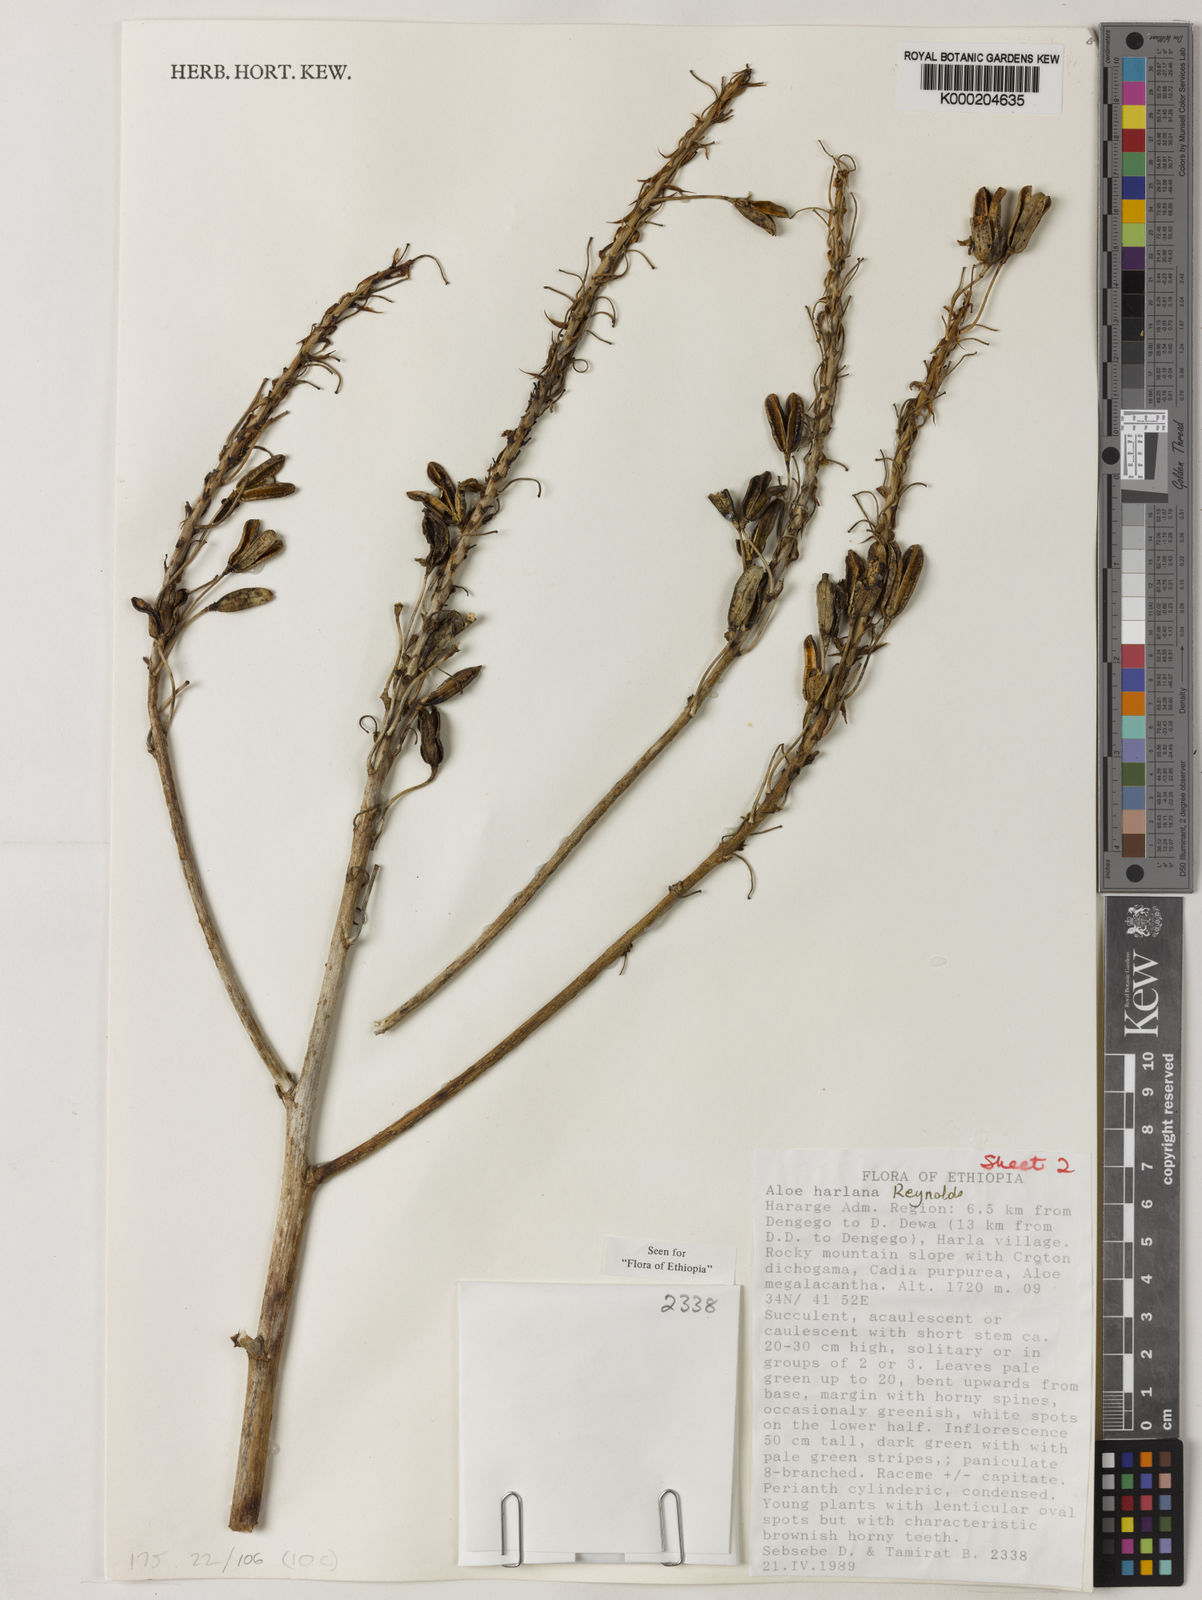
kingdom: Plantae
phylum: Tracheophyta
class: Liliopsida
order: Asparagales
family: Asphodelaceae
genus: Aloe
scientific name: Aloe harlana
